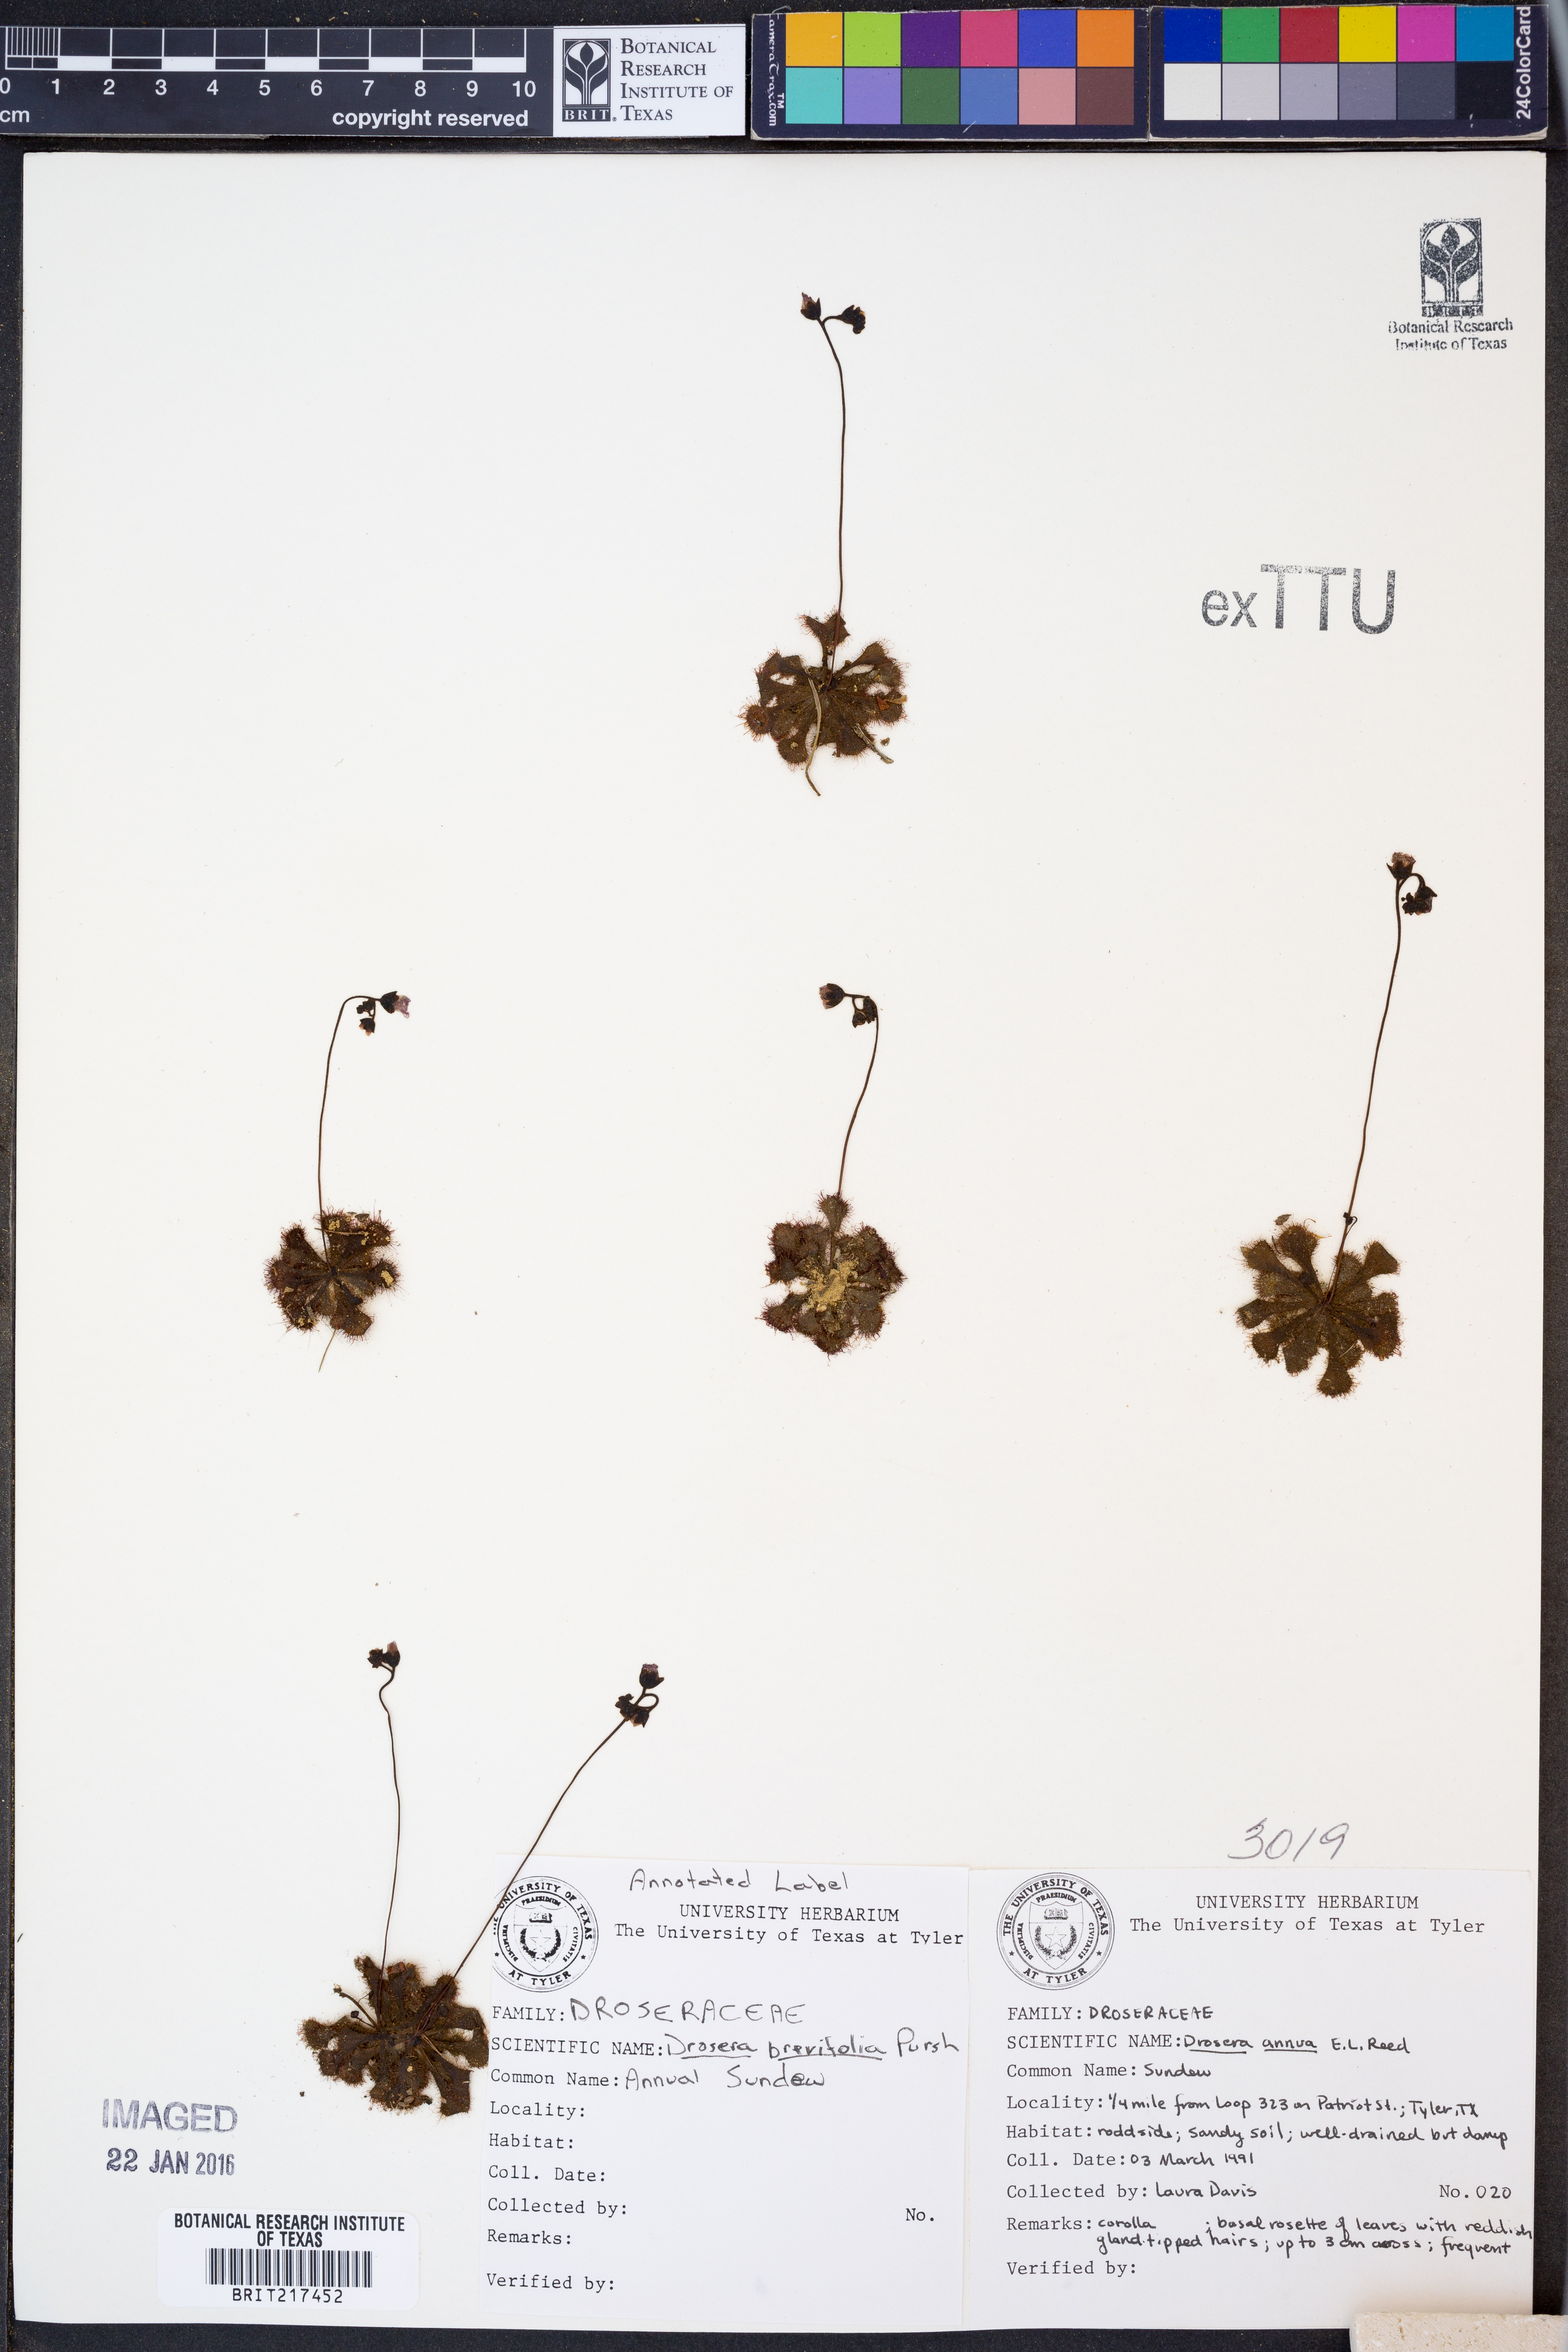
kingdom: Plantae
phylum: Tracheophyta
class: Magnoliopsida
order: Caryophyllales
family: Droseraceae
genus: Drosera
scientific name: Drosera brevifolia
